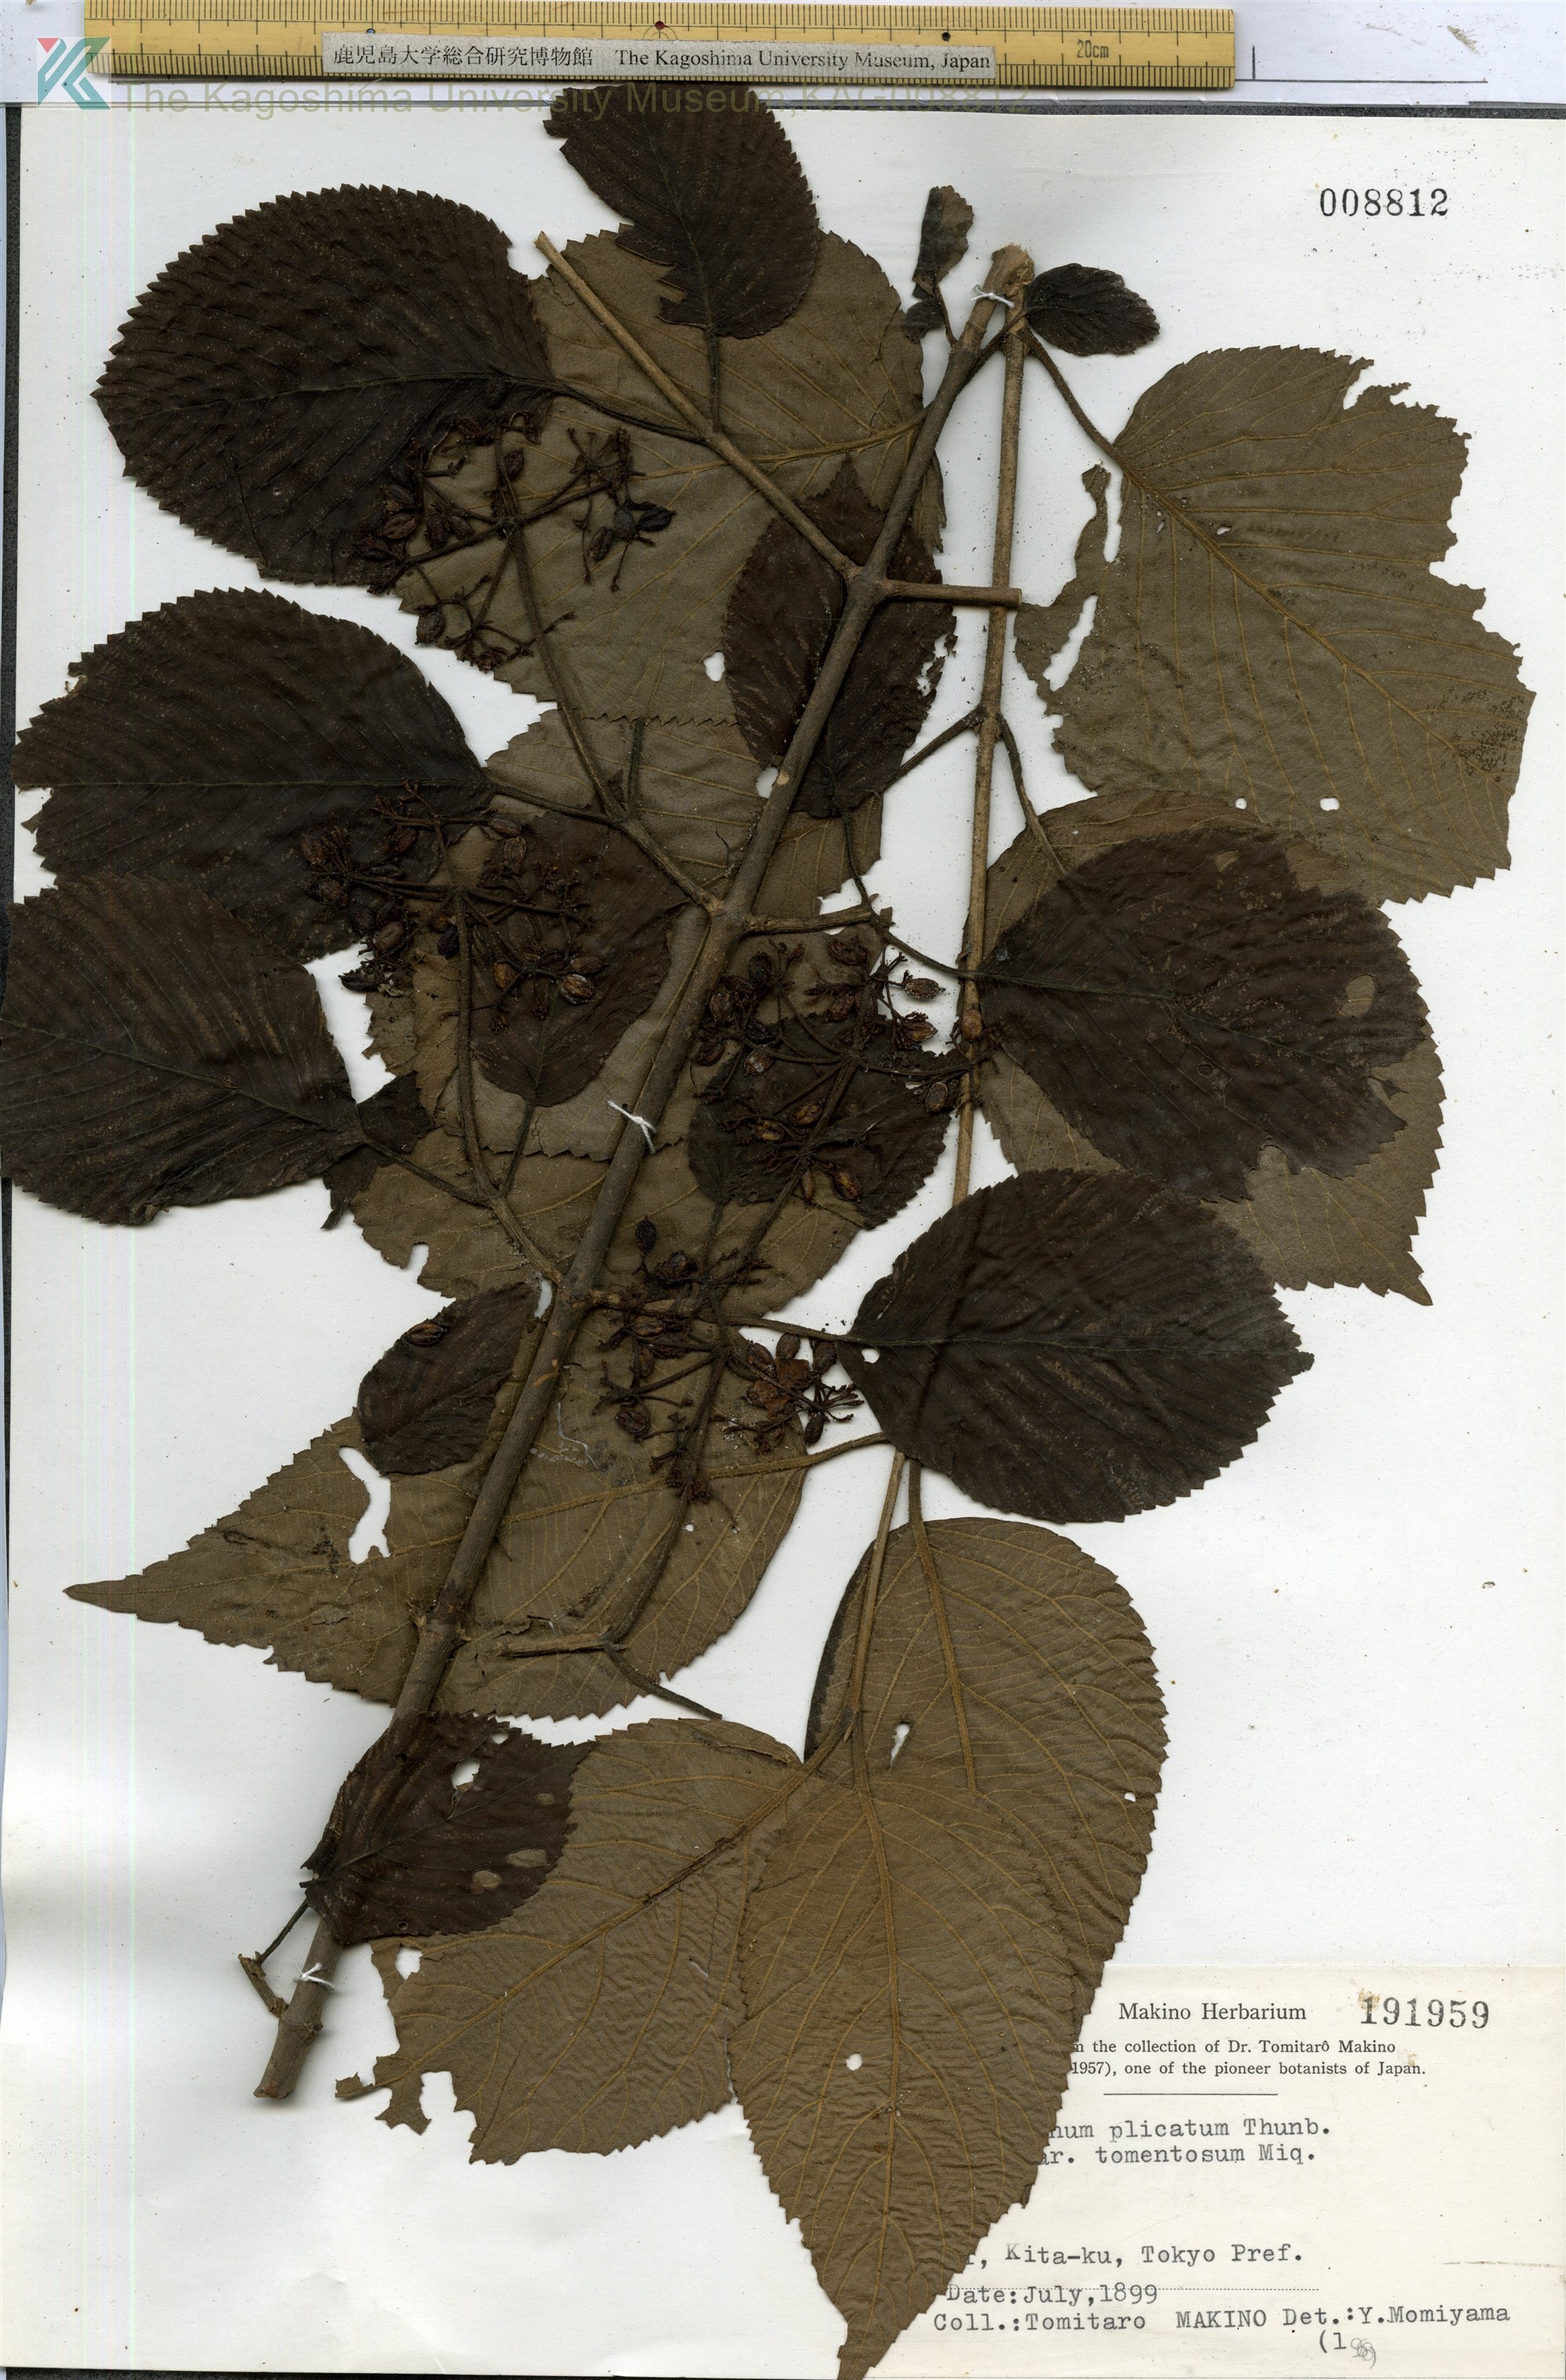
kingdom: Plantae
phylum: Tracheophyta
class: Magnoliopsida
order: Dipsacales
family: Viburnaceae
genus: Viburnum
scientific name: Viburnum plicatum
